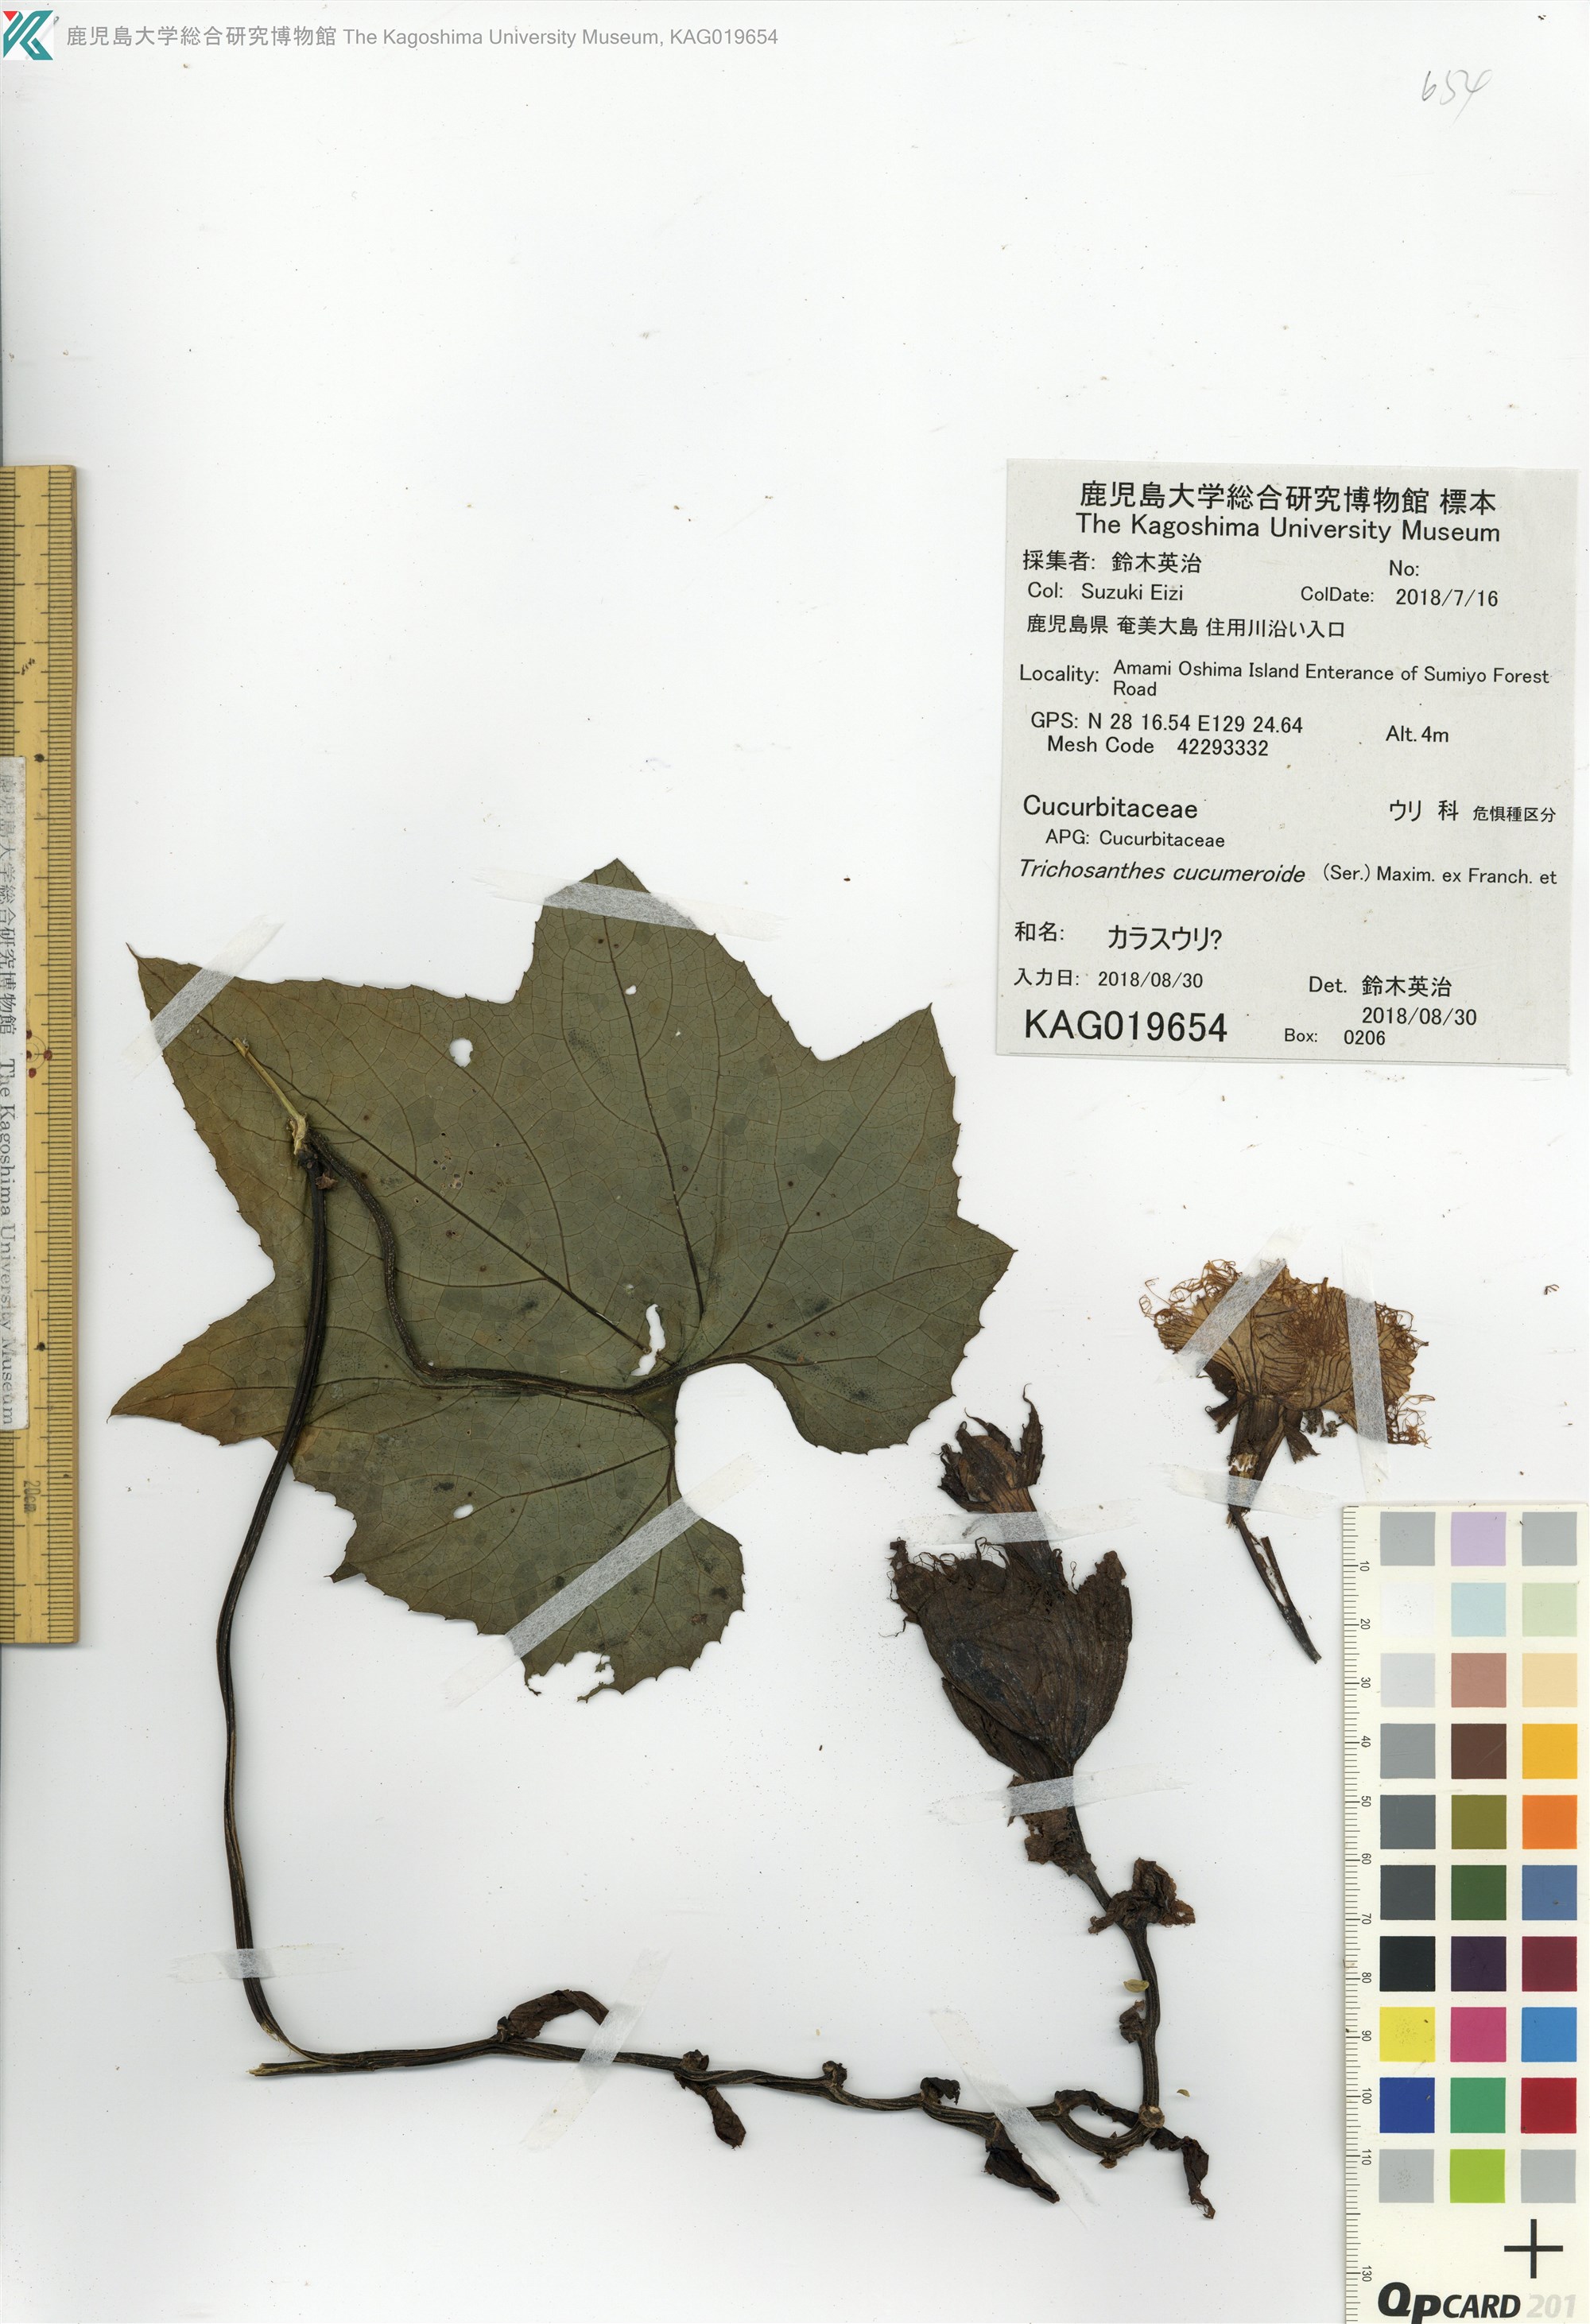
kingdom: Plantae
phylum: Tracheophyta
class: Magnoliopsida
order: Cucurbitales
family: Cucurbitaceae
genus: Trichosanthes
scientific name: Trichosanthes laceribractea
